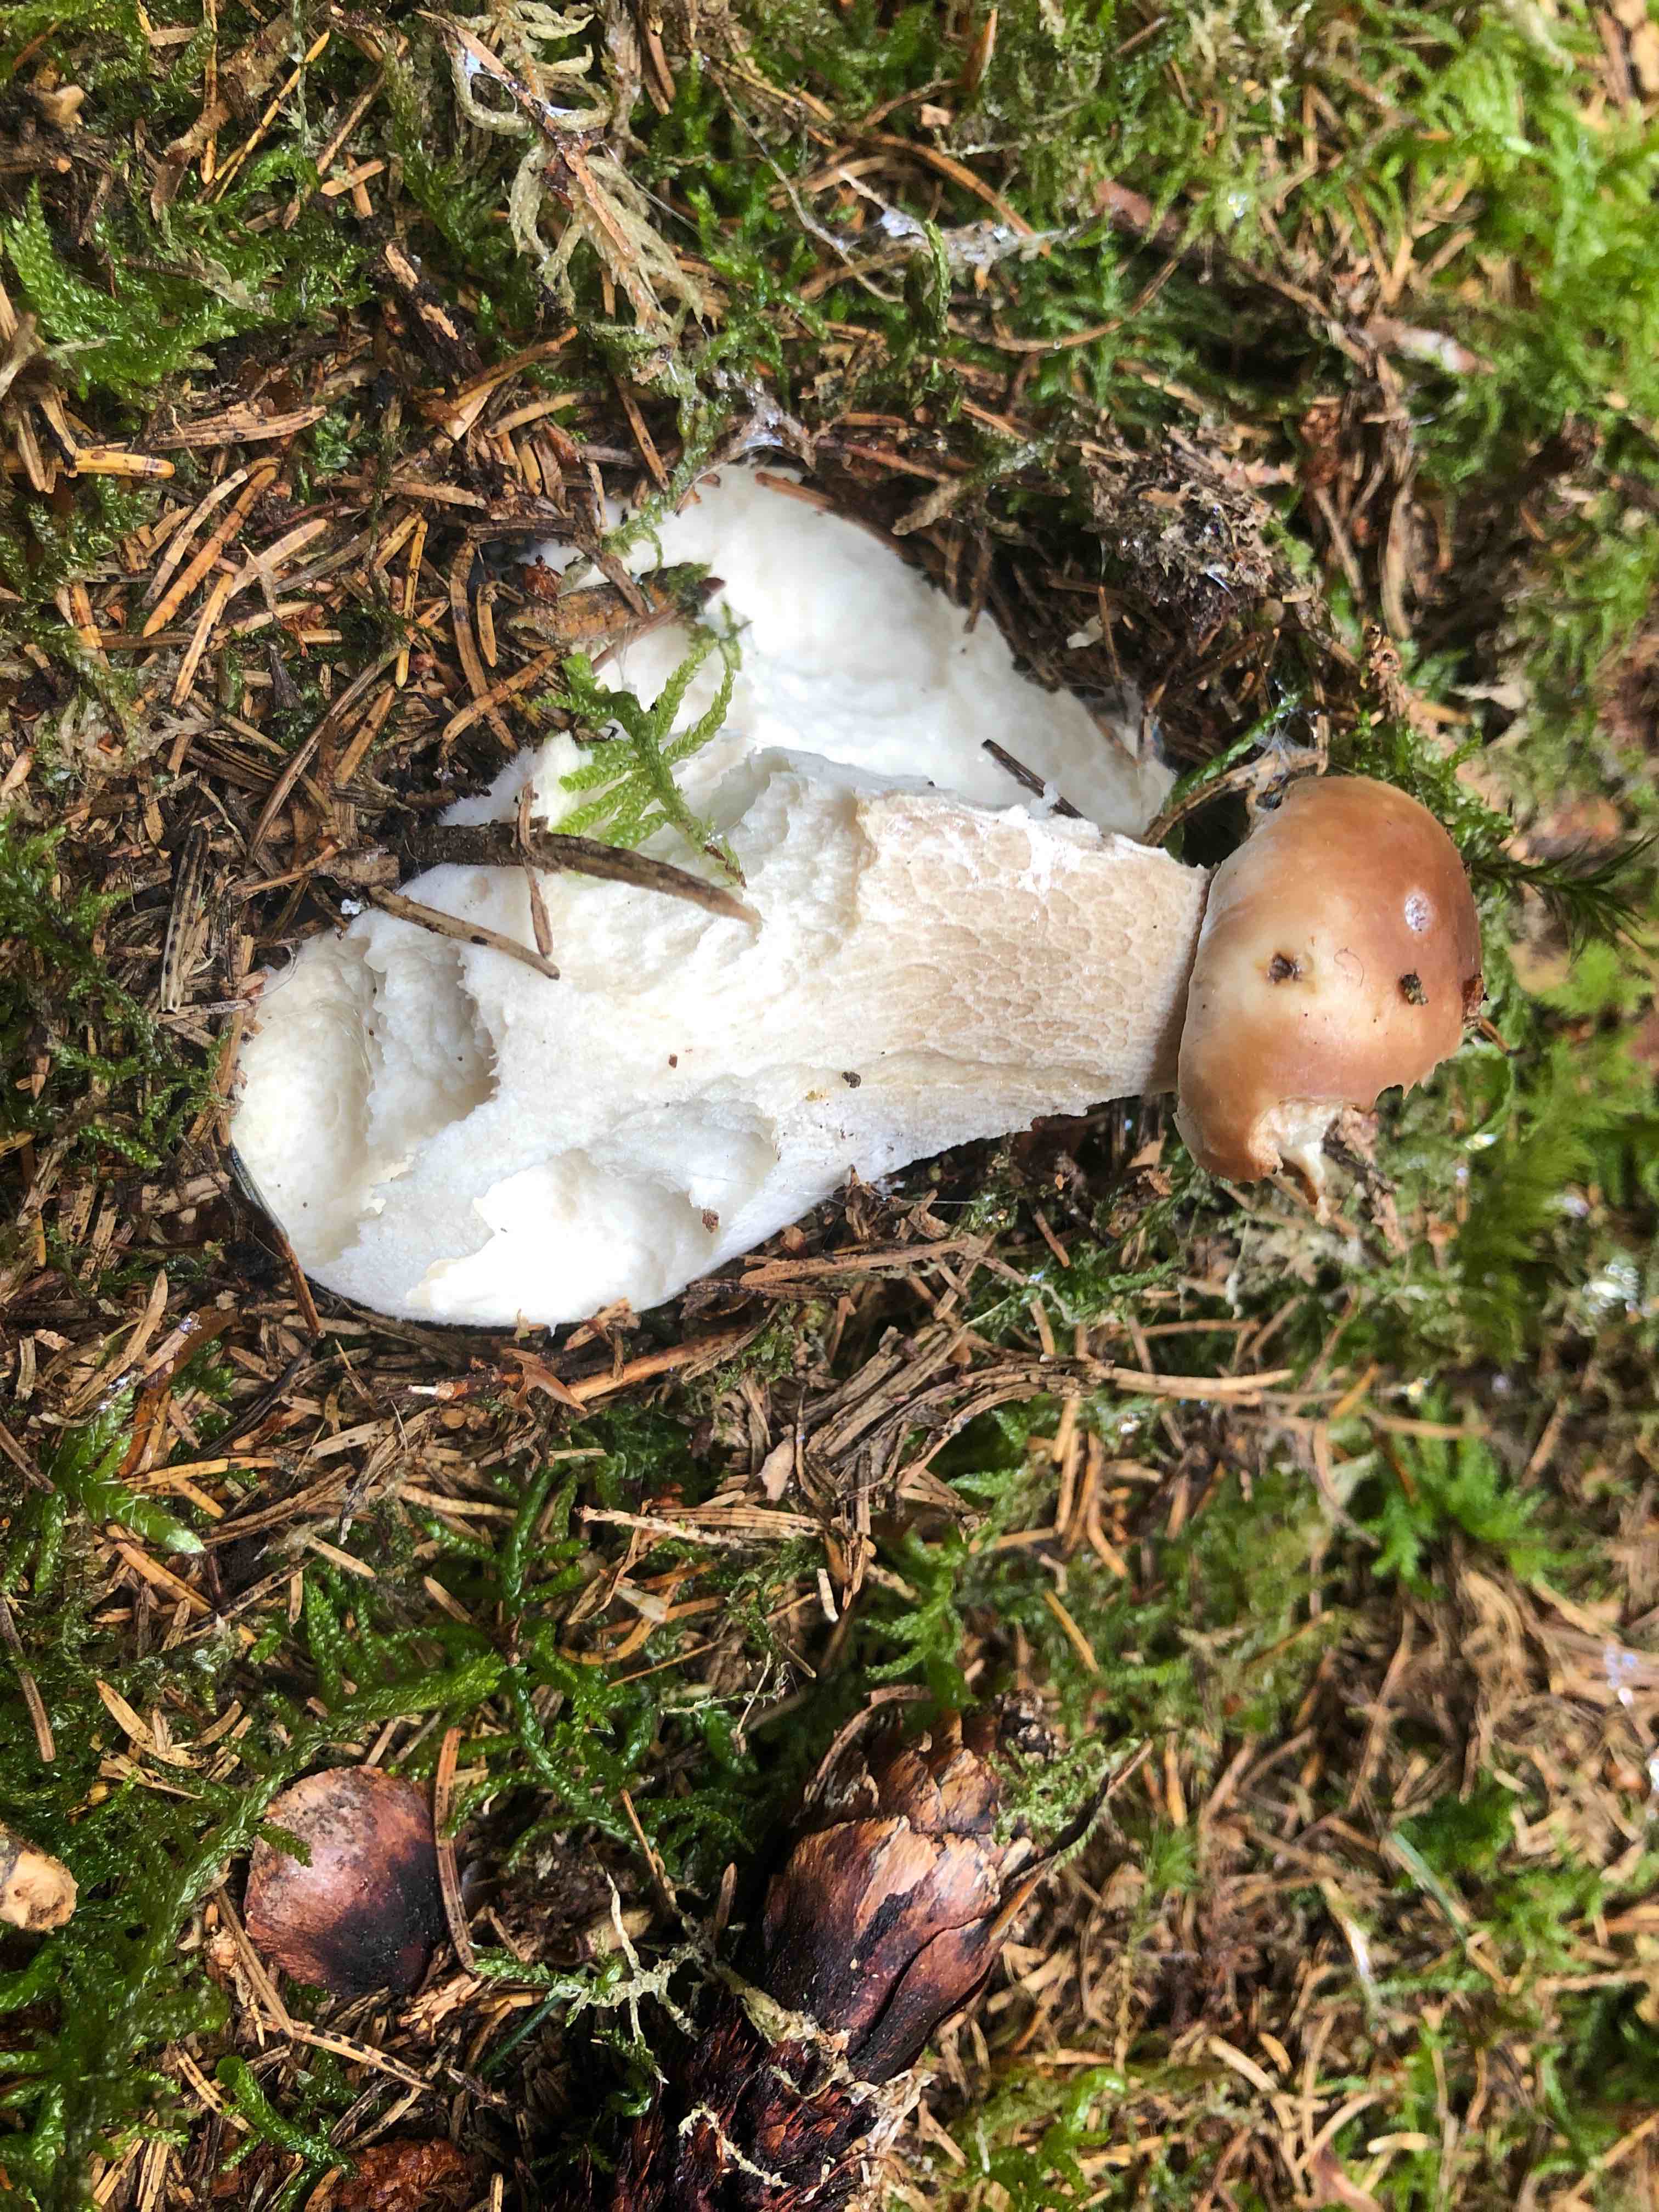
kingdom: Fungi
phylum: Basidiomycota
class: Agaricomycetes
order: Boletales
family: Boletaceae
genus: Boletus
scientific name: Boletus edulis
